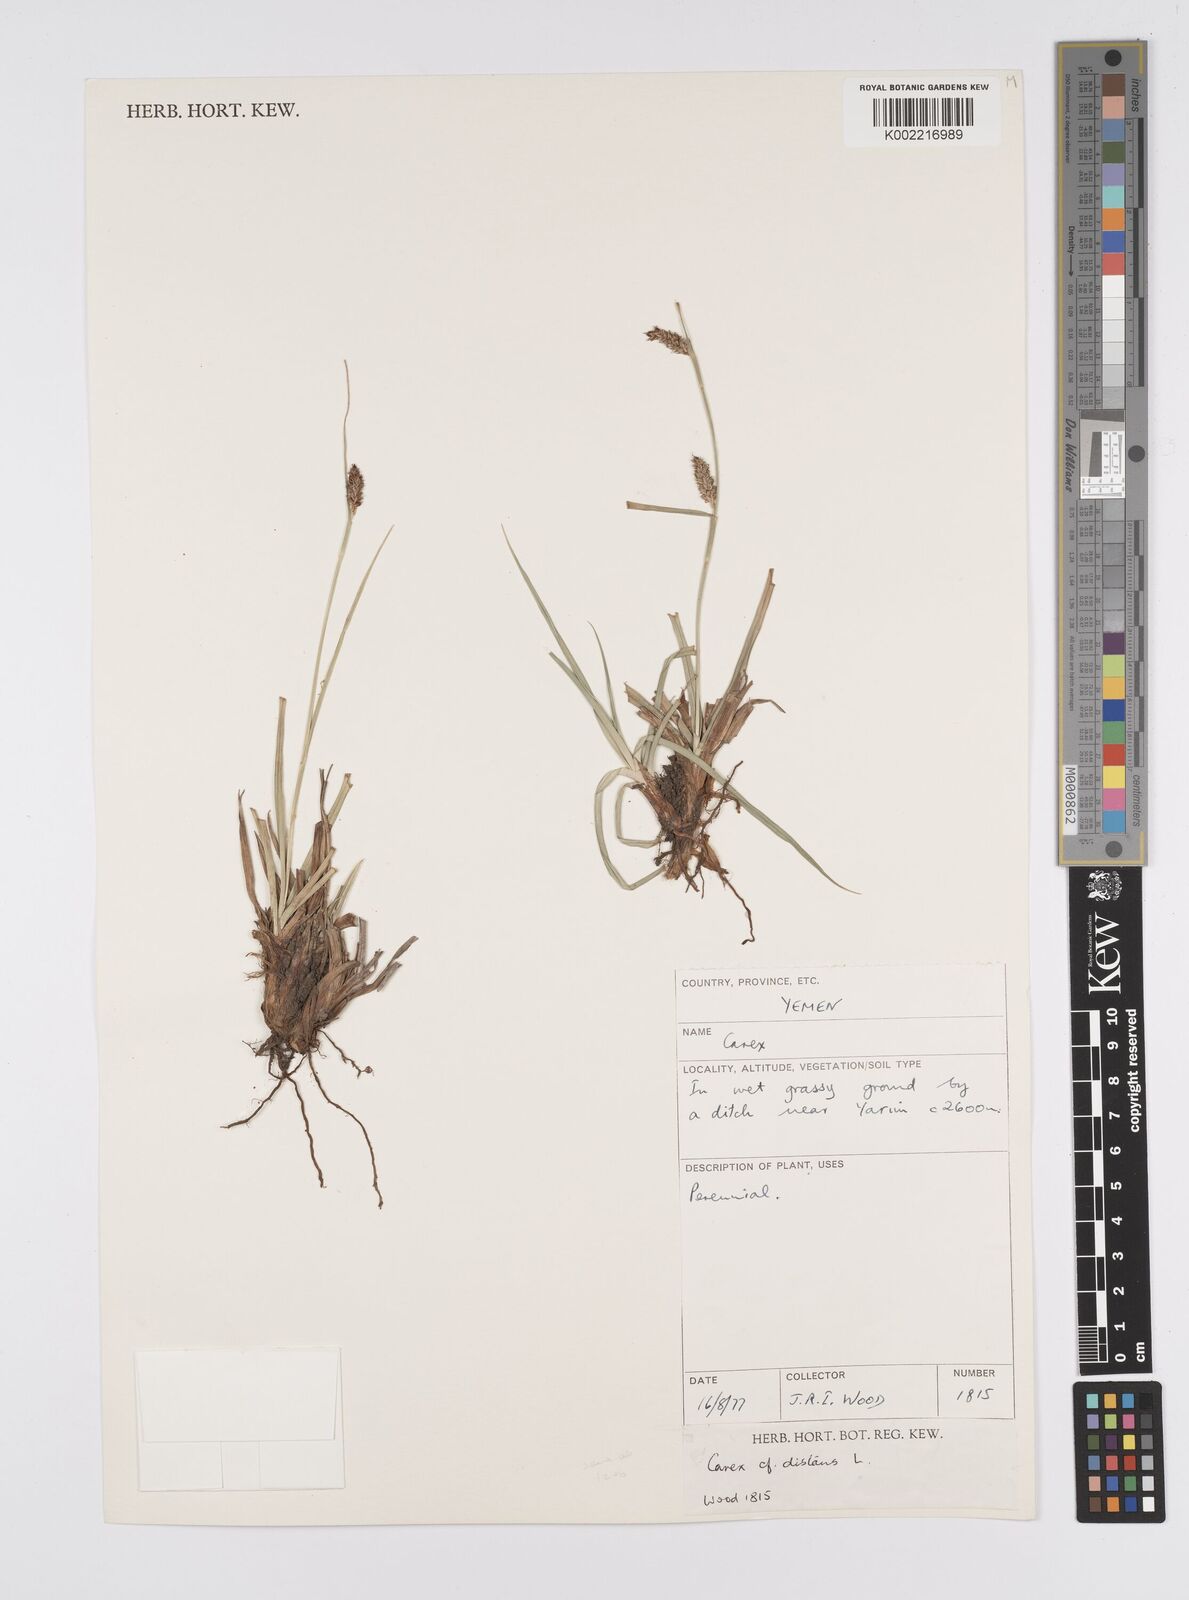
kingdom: Plantae
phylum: Tracheophyta
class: Liliopsida
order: Poales
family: Cyperaceae
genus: Carex
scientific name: Carex distans
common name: Distant sedge
